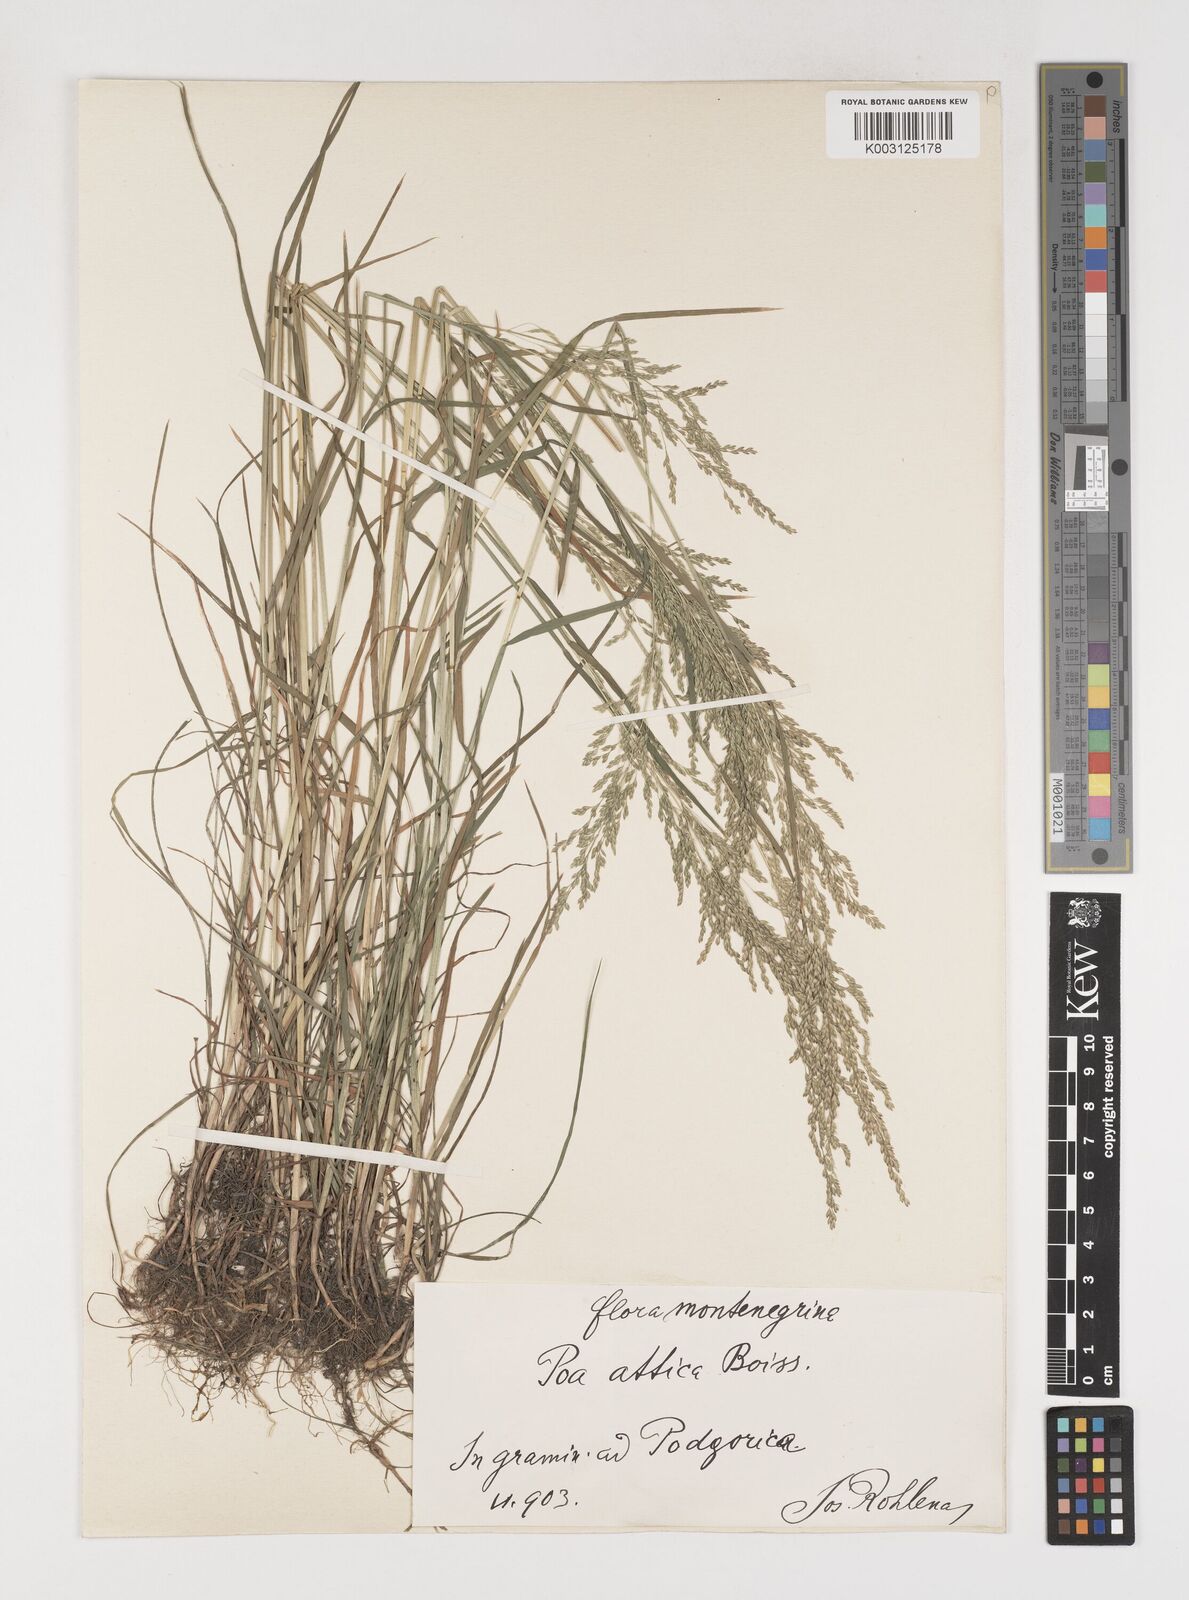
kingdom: Plantae
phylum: Tracheophyta
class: Liliopsida
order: Poales
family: Poaceae
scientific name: Poaceae
